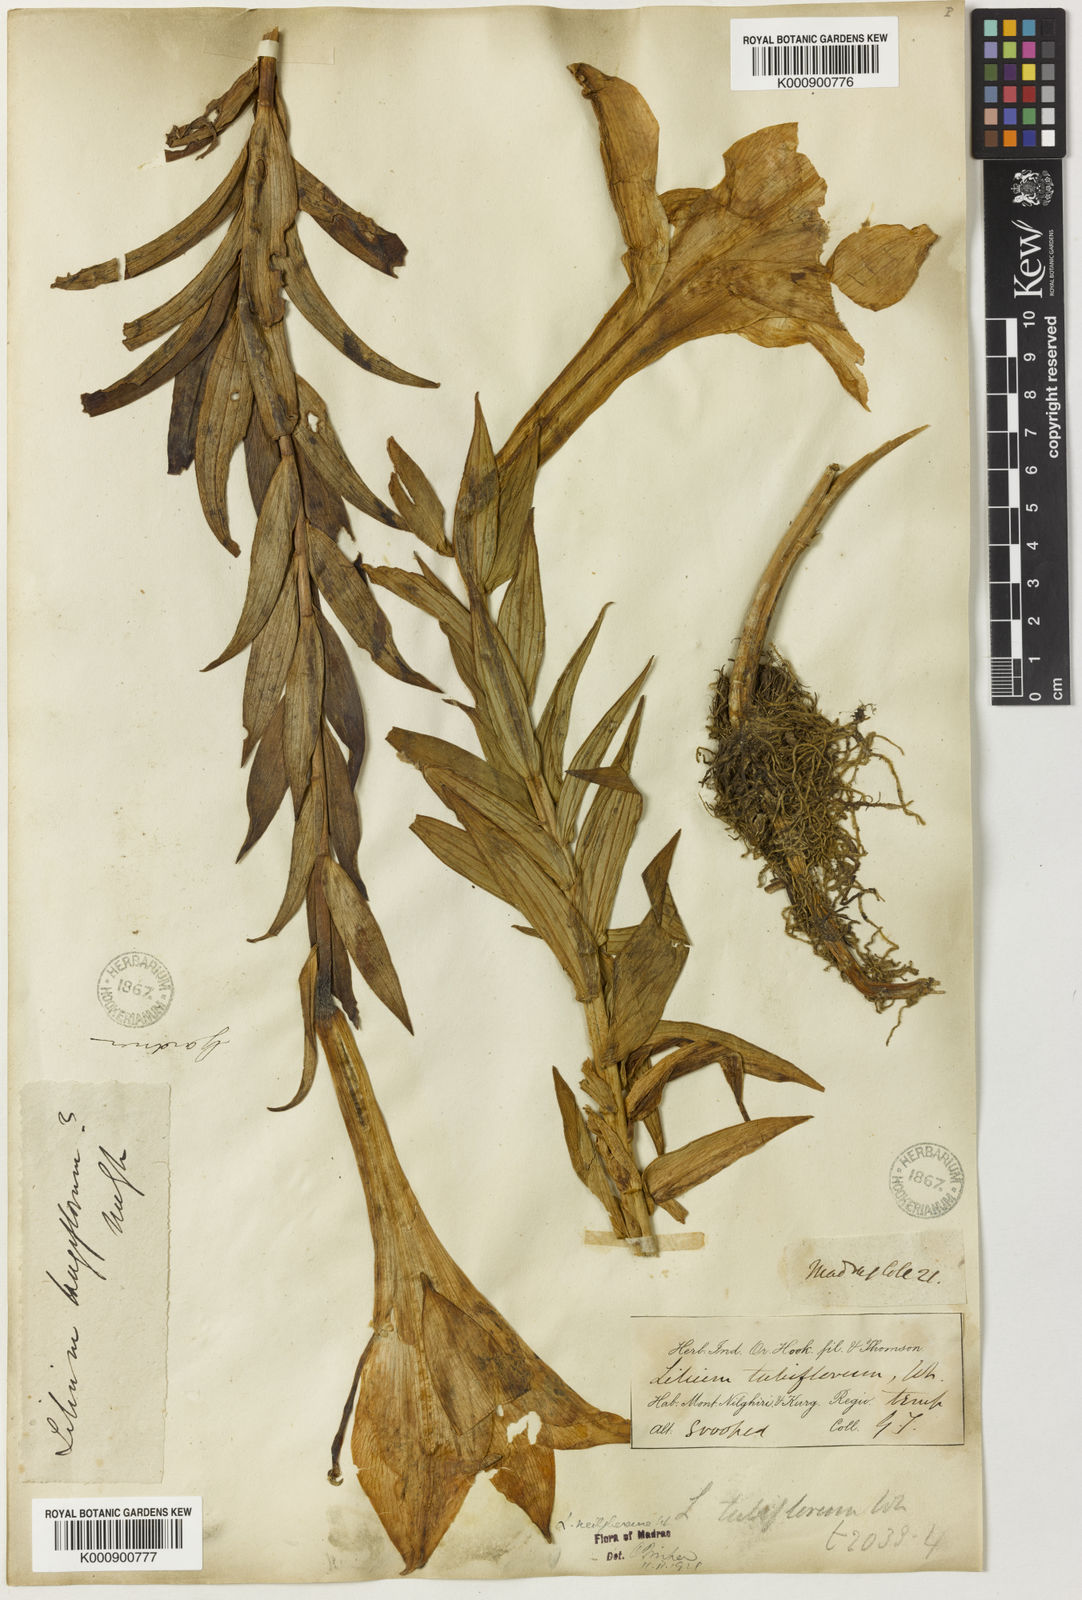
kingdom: Plantae
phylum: Tracheophyta
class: Liliopsida
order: Liliales
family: Liliaceae
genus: Lilium
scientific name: Lilium wallichianum
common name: Wallich's lily
